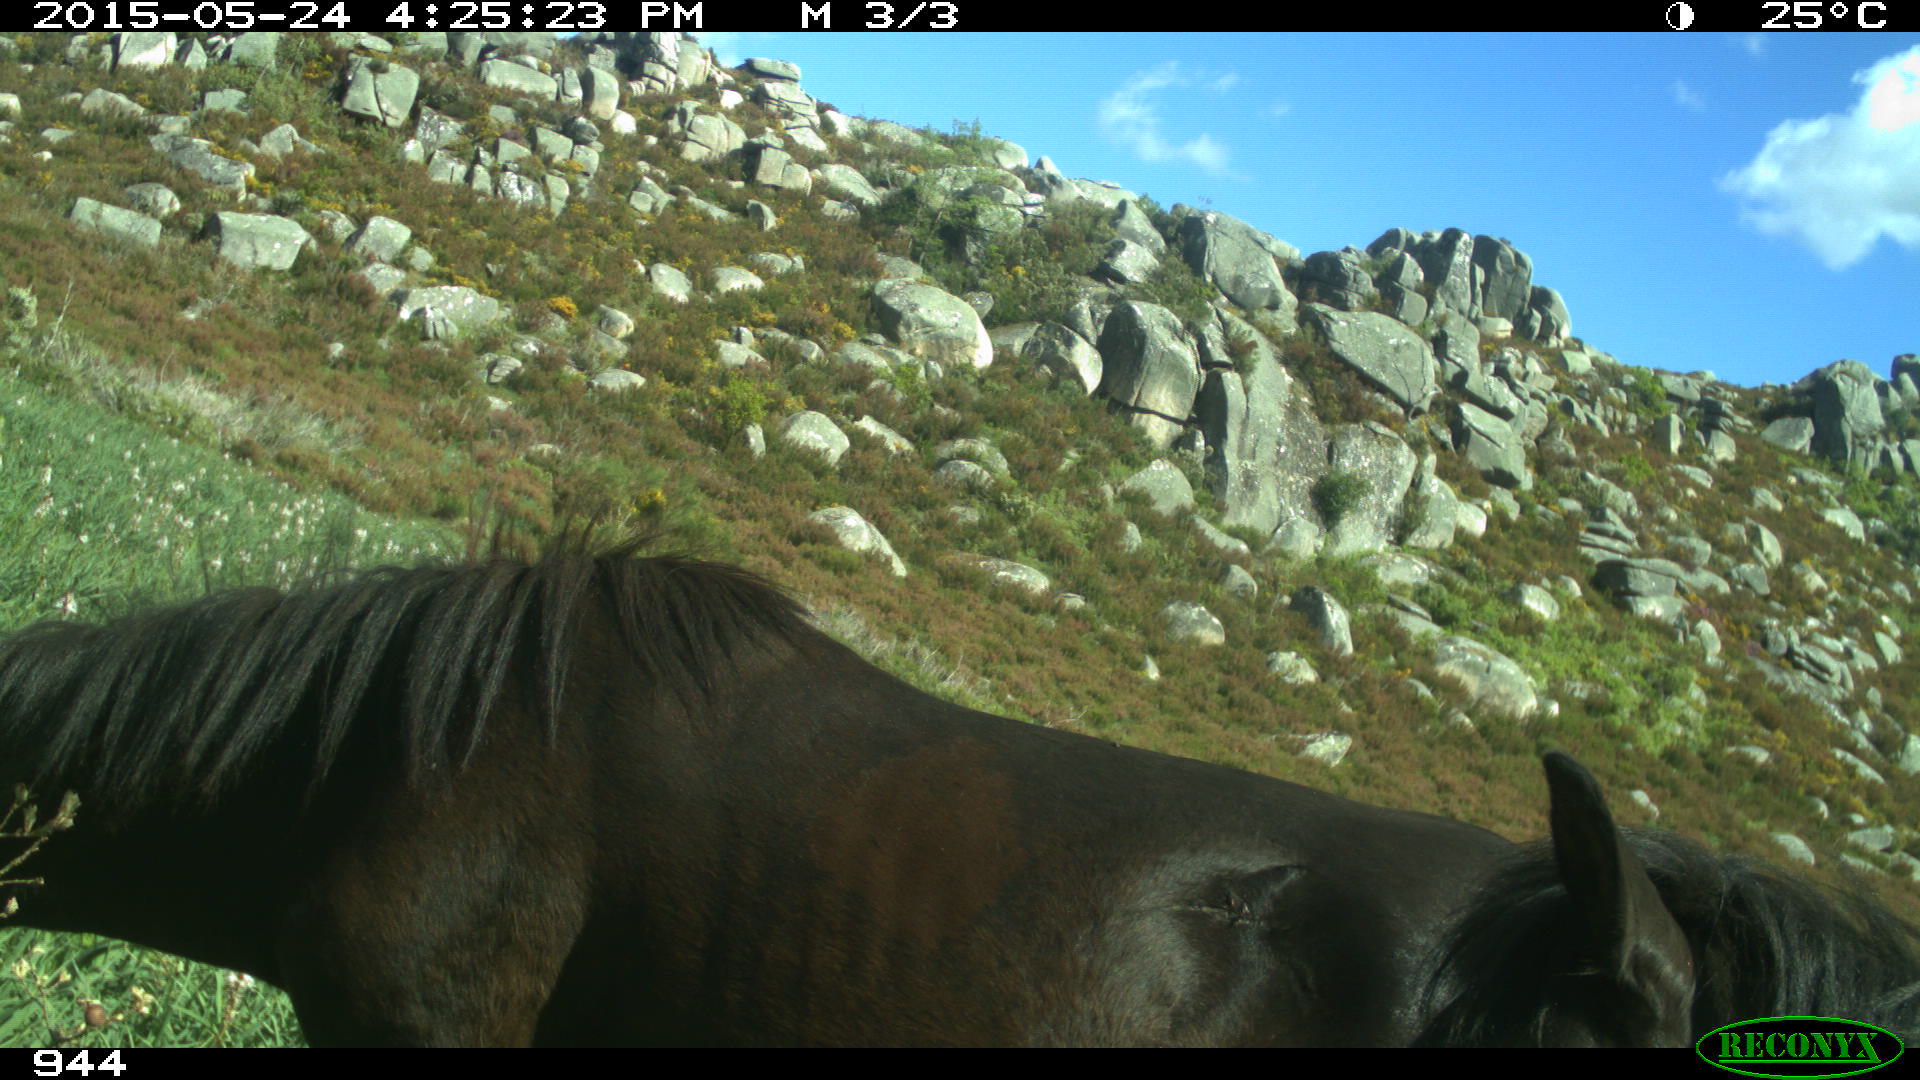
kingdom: Animalia
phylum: Chordata
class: Mammalia
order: Perissodactyla
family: Equidae
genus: Equus
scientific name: Equus caballus
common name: Horse
